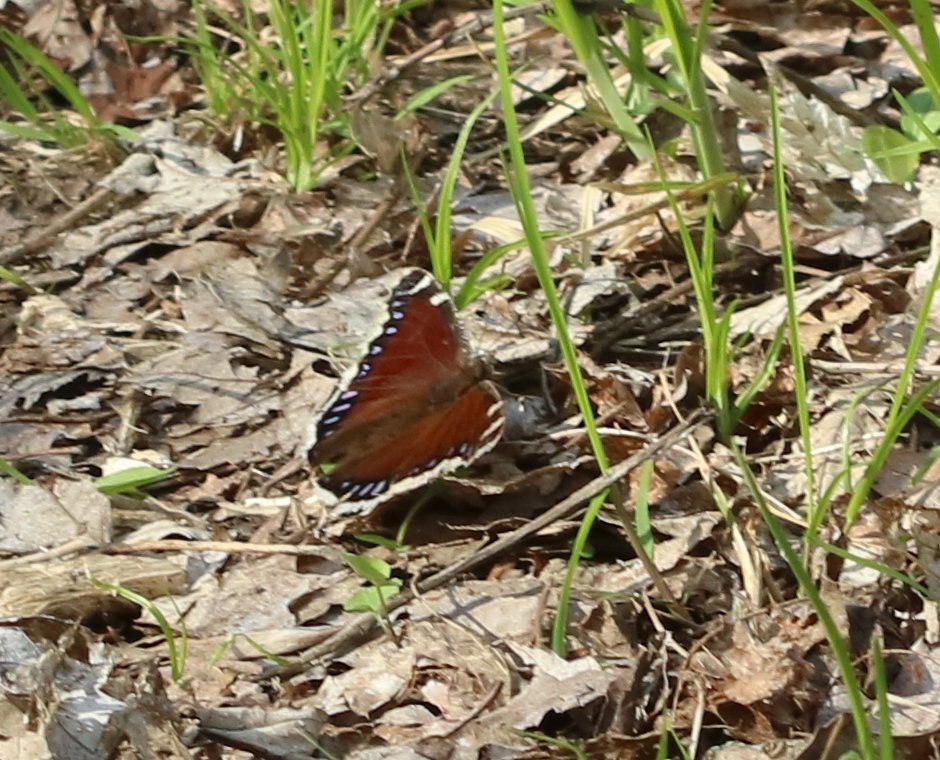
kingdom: Animalia
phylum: Arthropoda
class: Insecta
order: Lepidoptera
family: Nymphalidae
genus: Nymphalis
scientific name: Nymphalis antiopa
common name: Mourning Cloak
